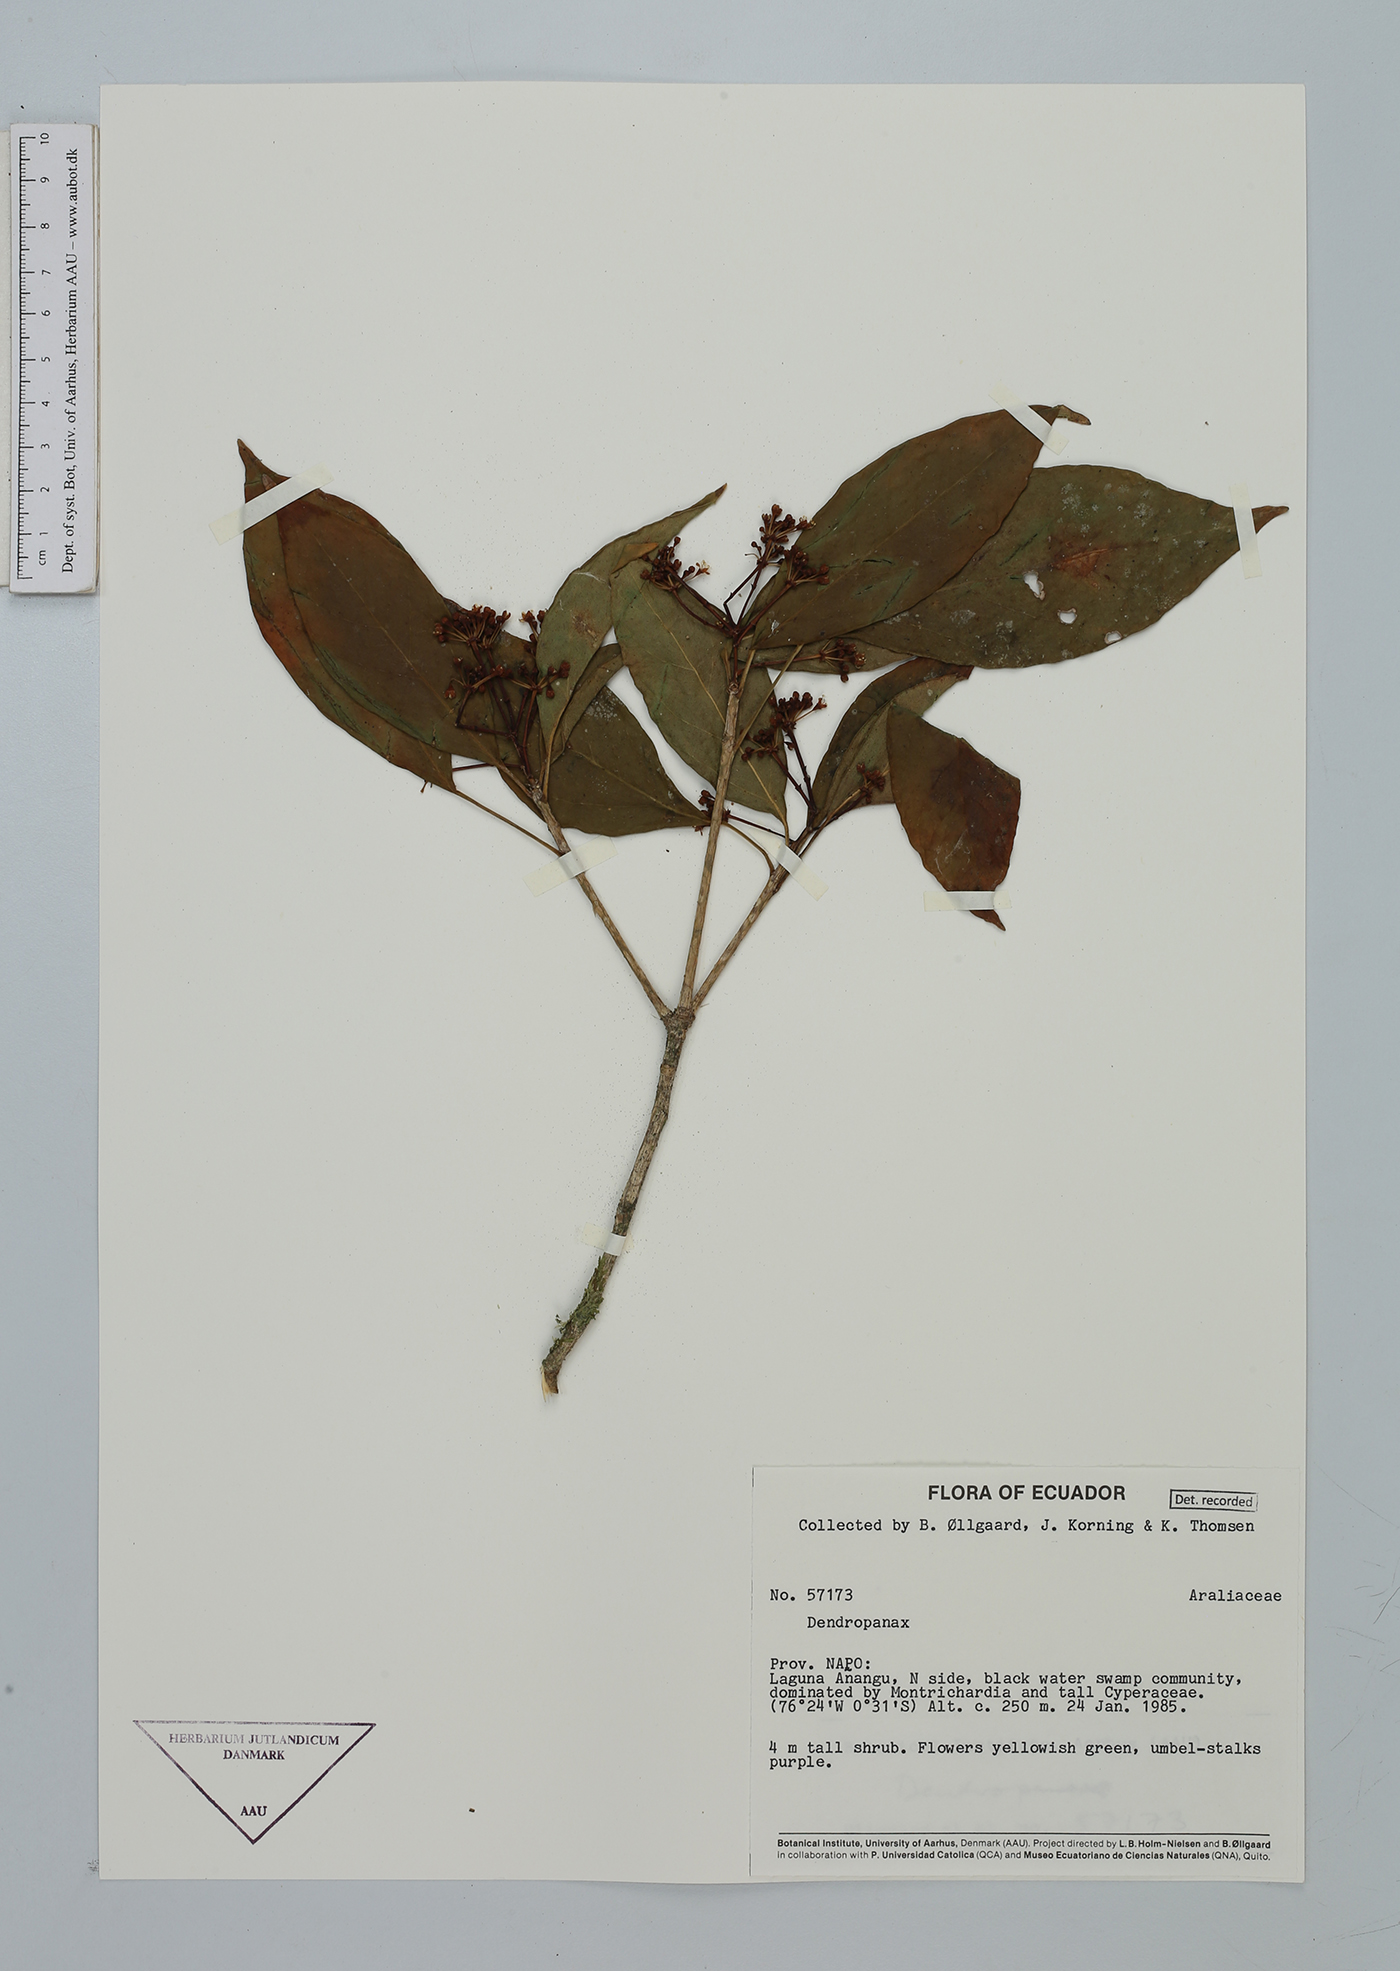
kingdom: Plantae
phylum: Tracheophyta
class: Magnoliopsida
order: Apiales
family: Araliaceae
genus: Dendropanax
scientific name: Dendropanax
